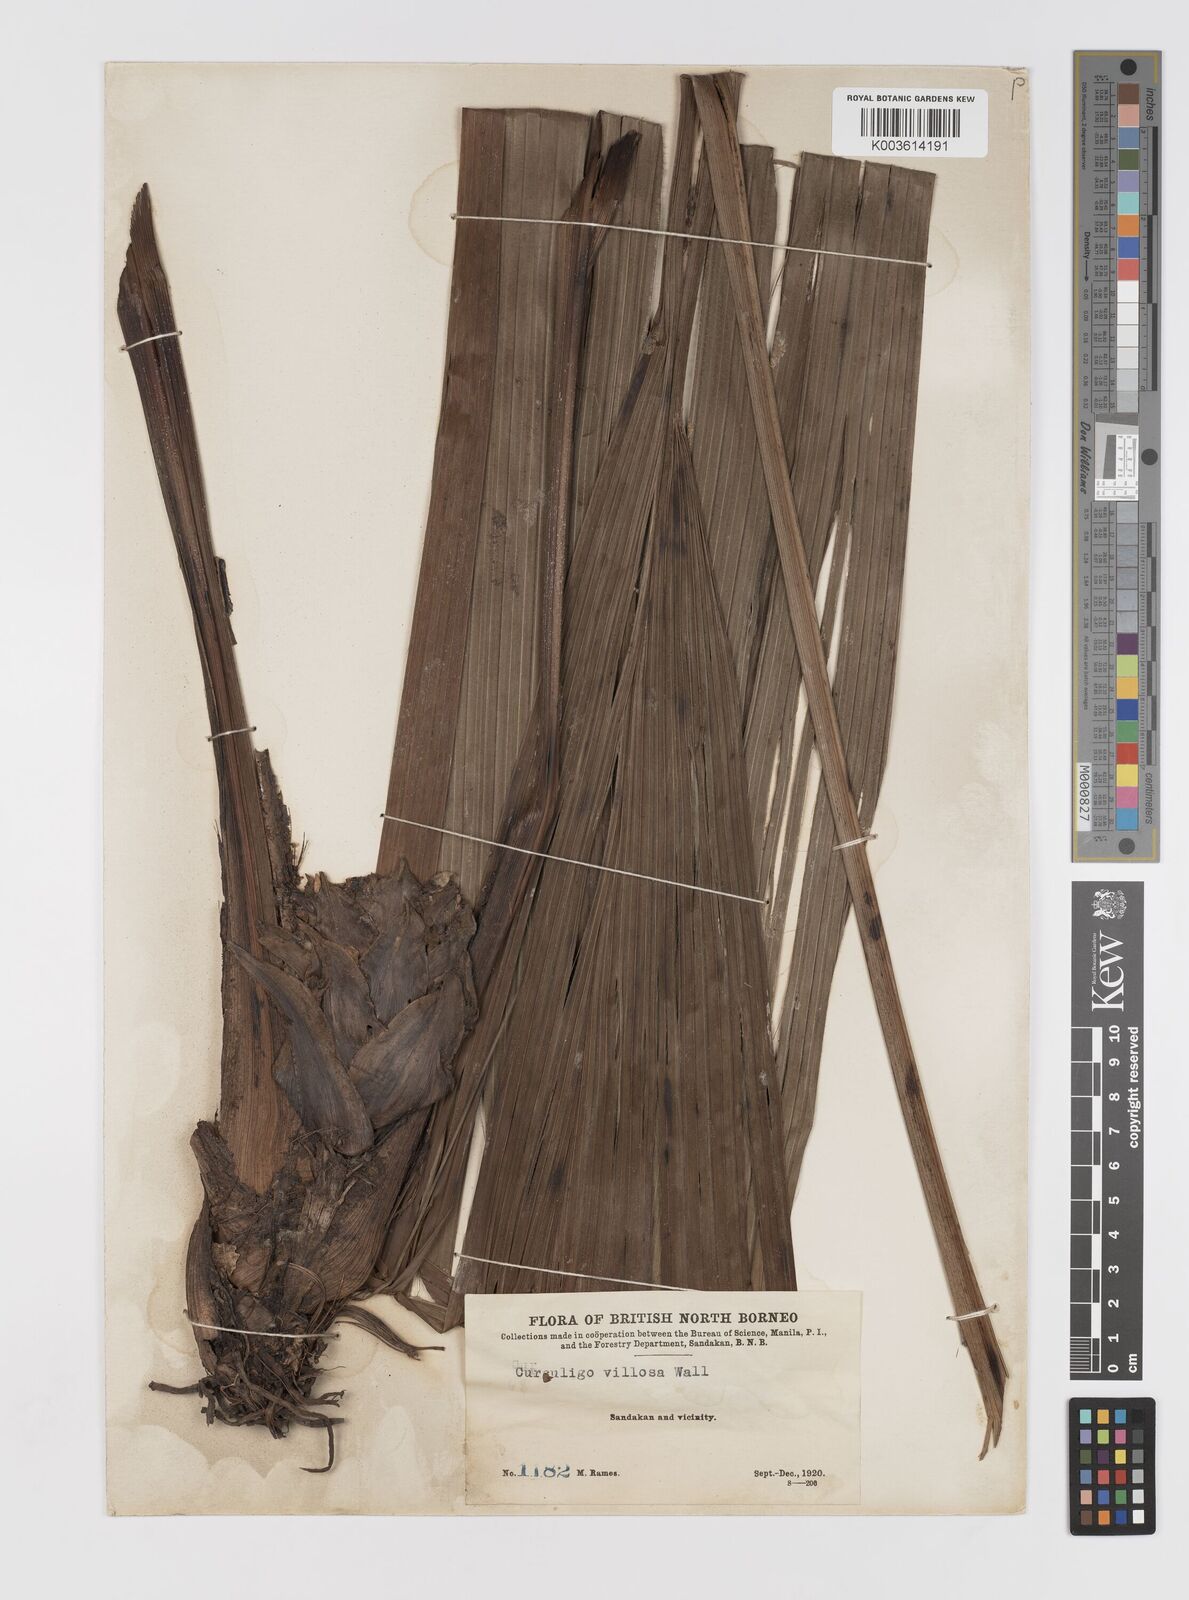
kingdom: Plantae
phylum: Tracheophyta
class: Liliopsida
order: Asparagales
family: Hypoxidaceae
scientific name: Hypoxidaceae
